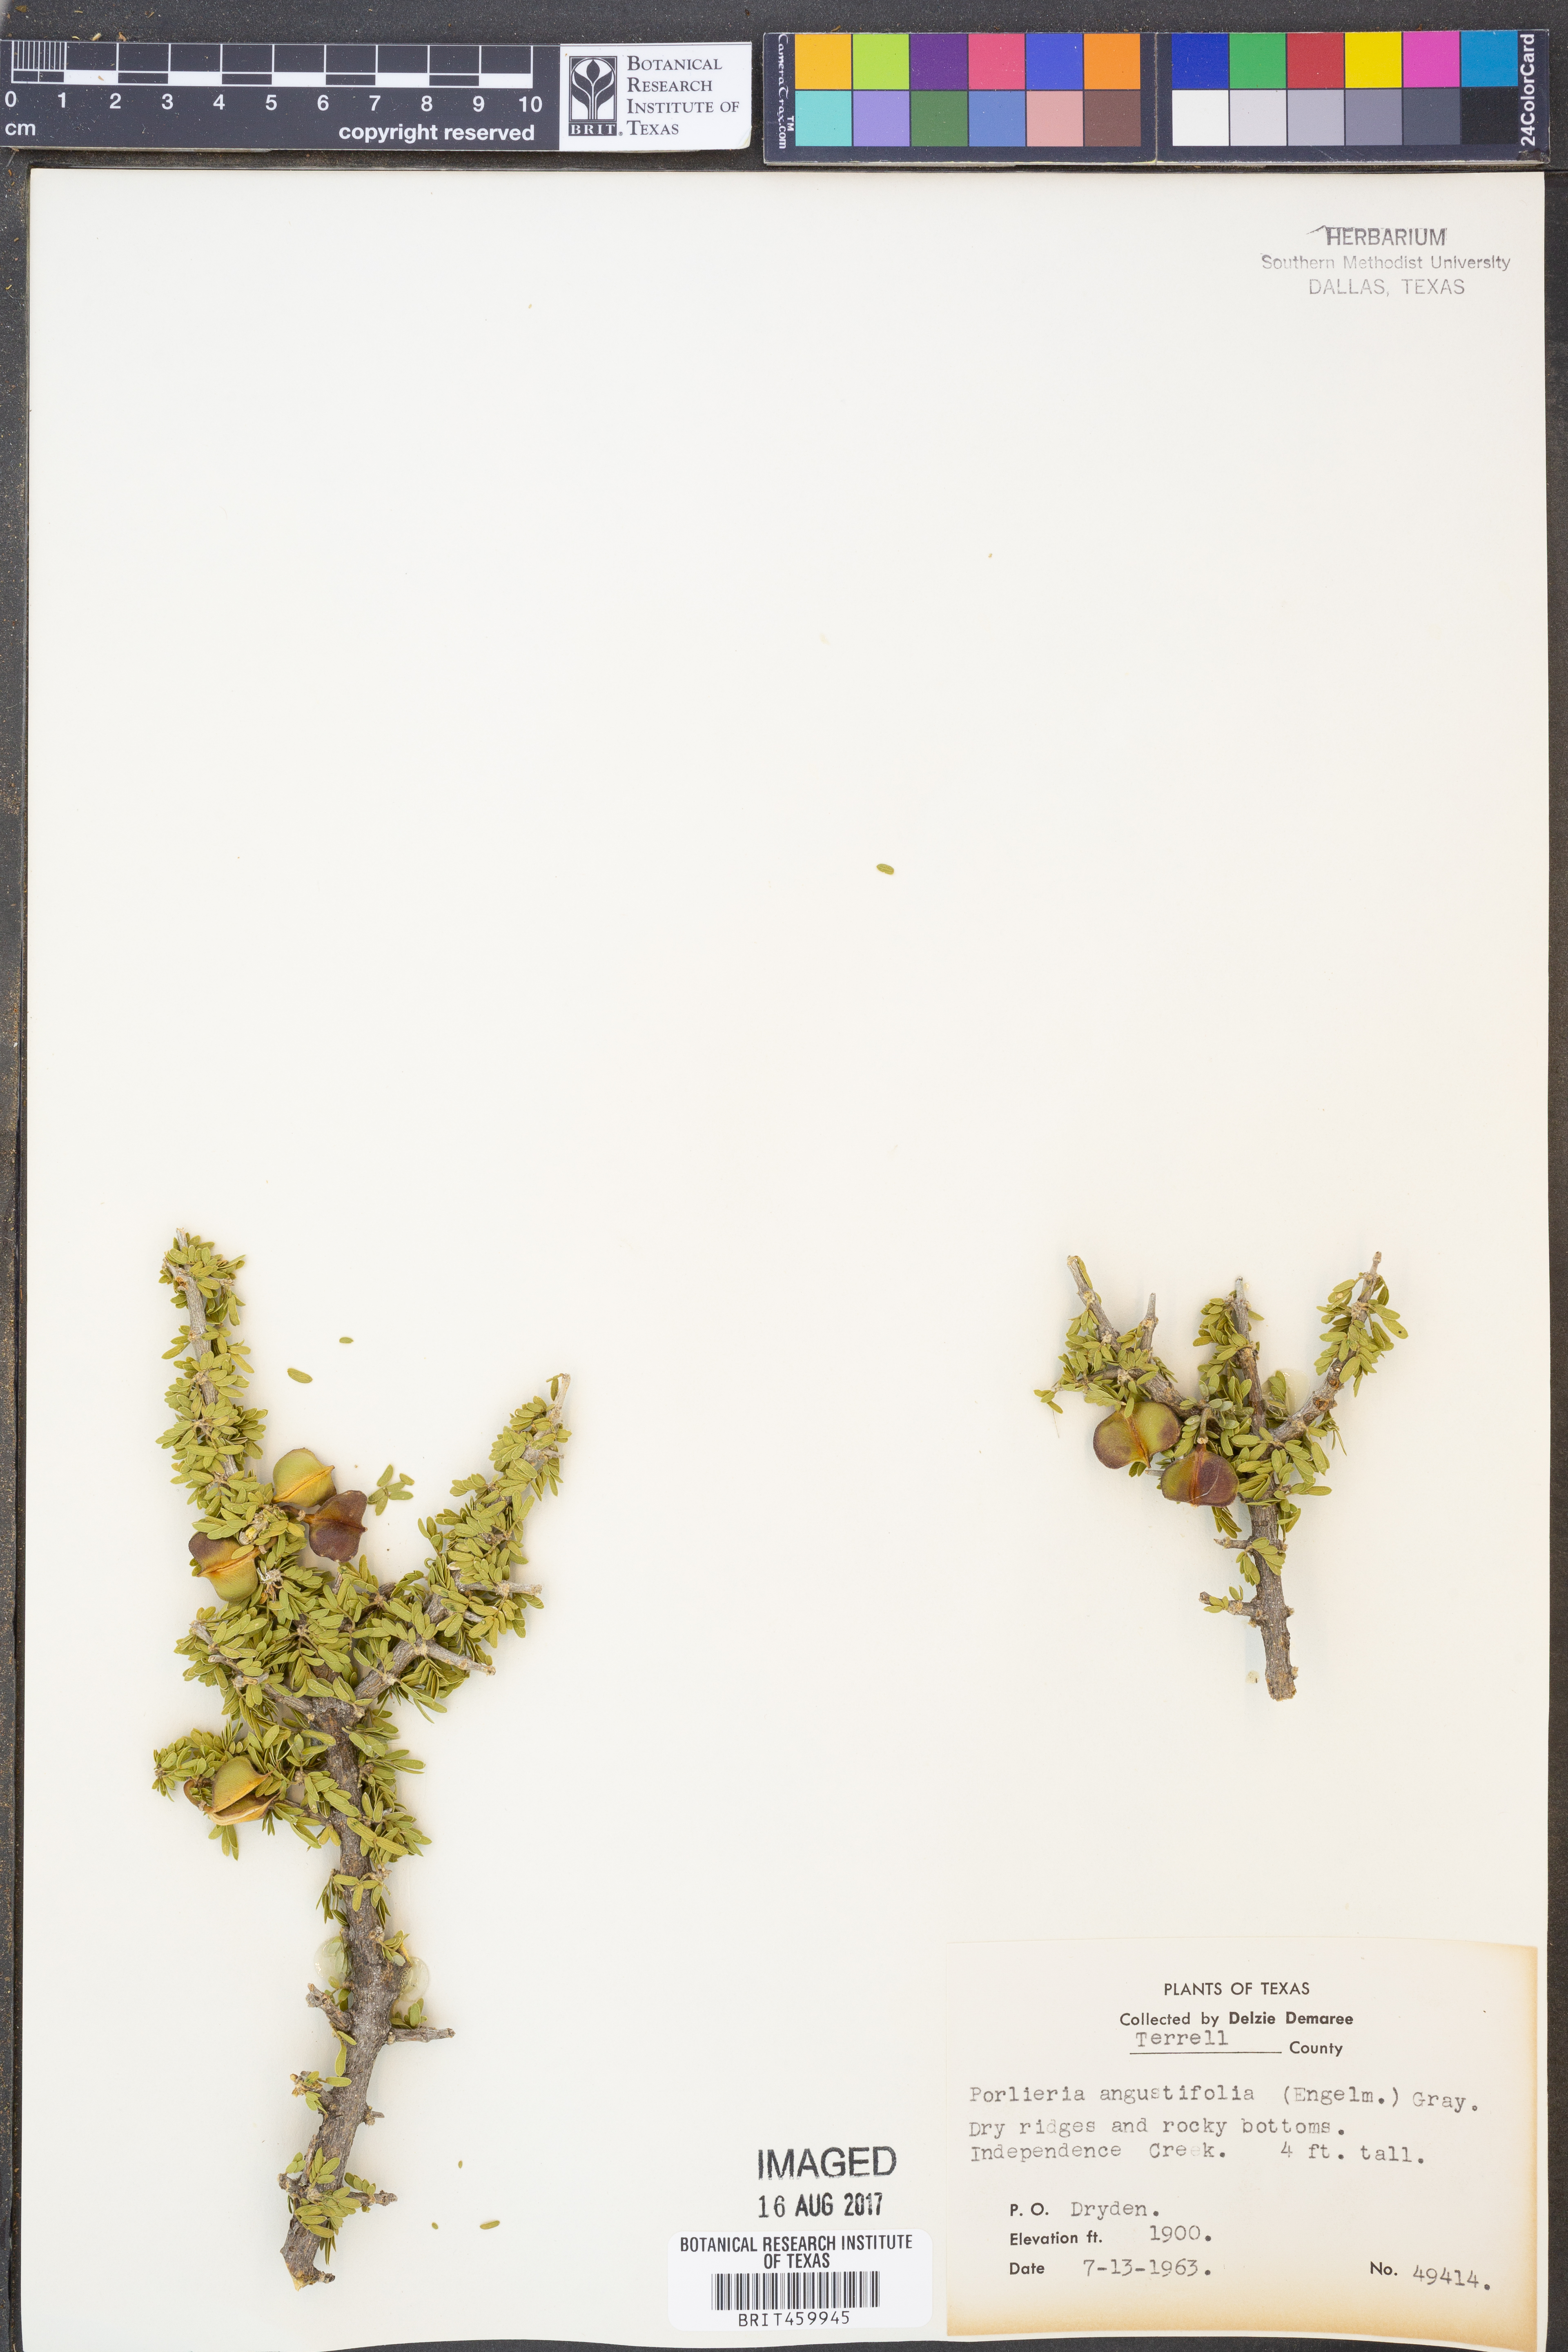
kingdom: Plantae
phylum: Tracheophyta
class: Magnoliopsida
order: Zygophyllales
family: Zygophyllaceae
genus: Porlieria
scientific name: Porlieria angustifolia
